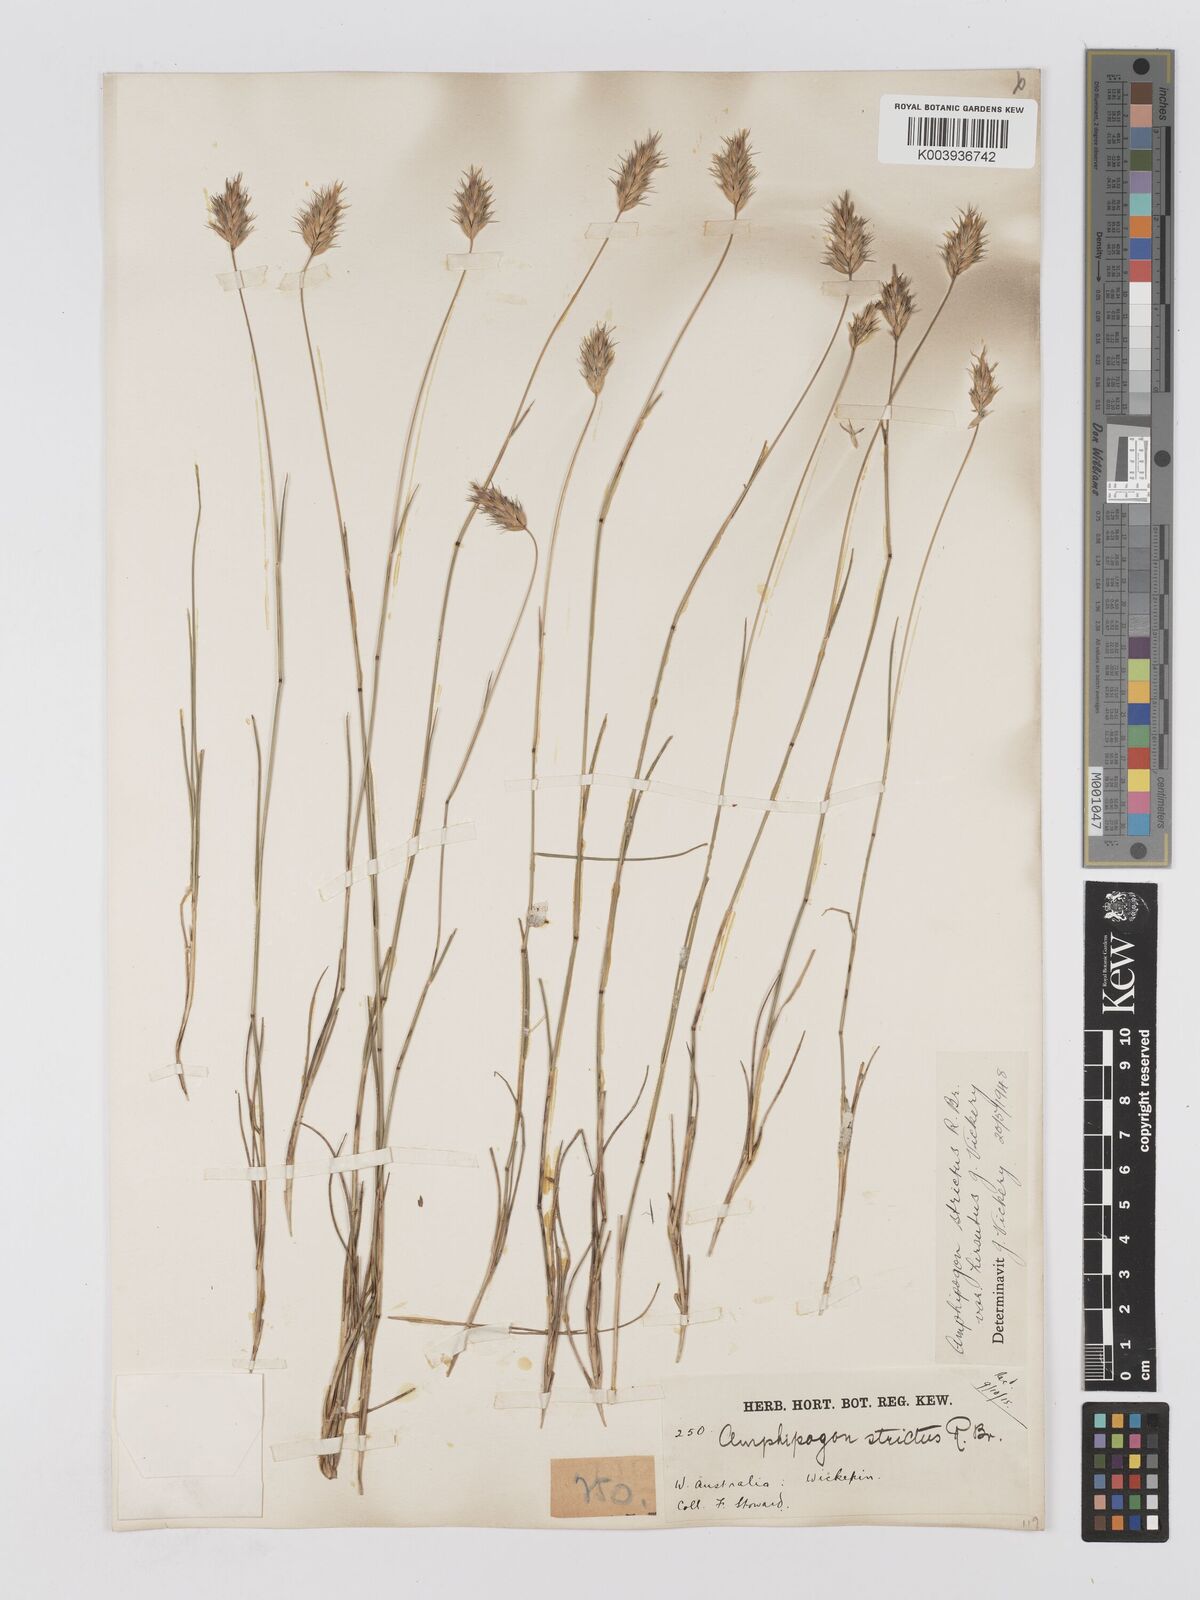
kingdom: Plantae
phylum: Tracheophyta
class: Liliopsida
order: Poales
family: Poaceae
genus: Amphipogon
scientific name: Amphipogon strictus
